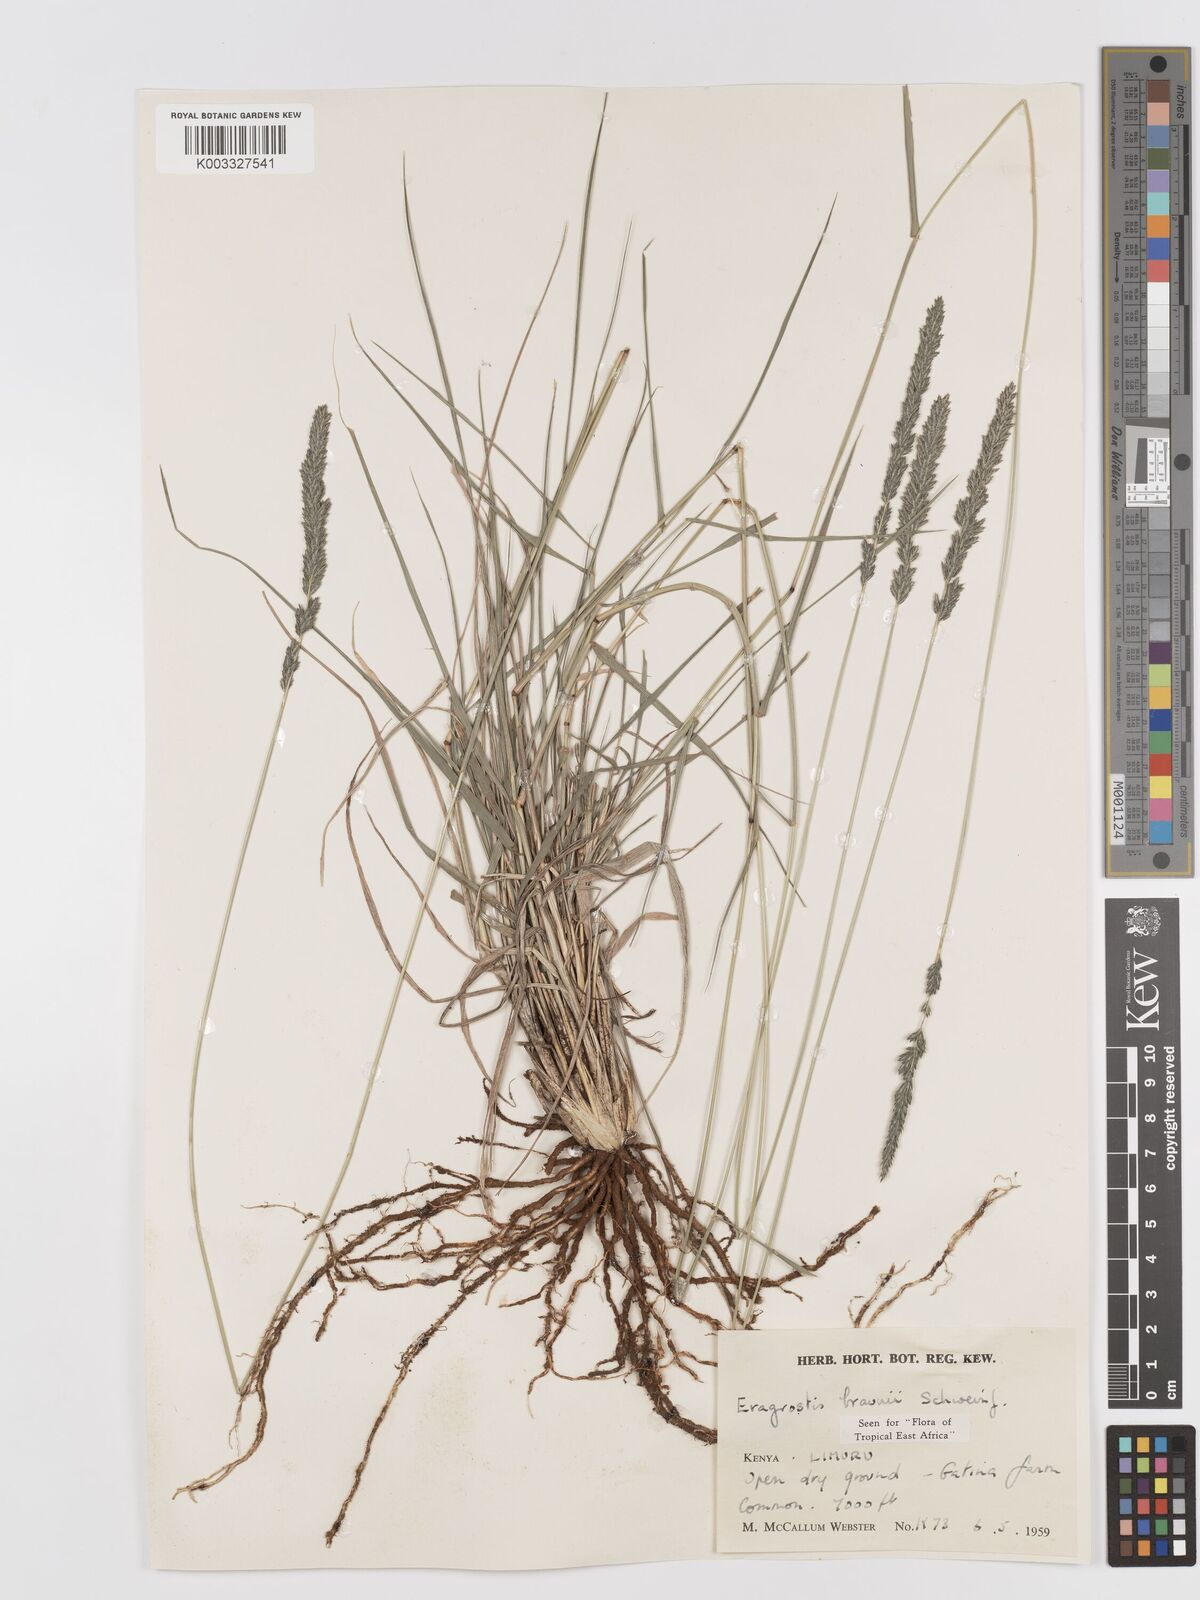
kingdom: Plantae
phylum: Tracheophyta
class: Liliopsida
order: Poales
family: Poaceae
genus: Eragrostis
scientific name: Eragrostis braunii
